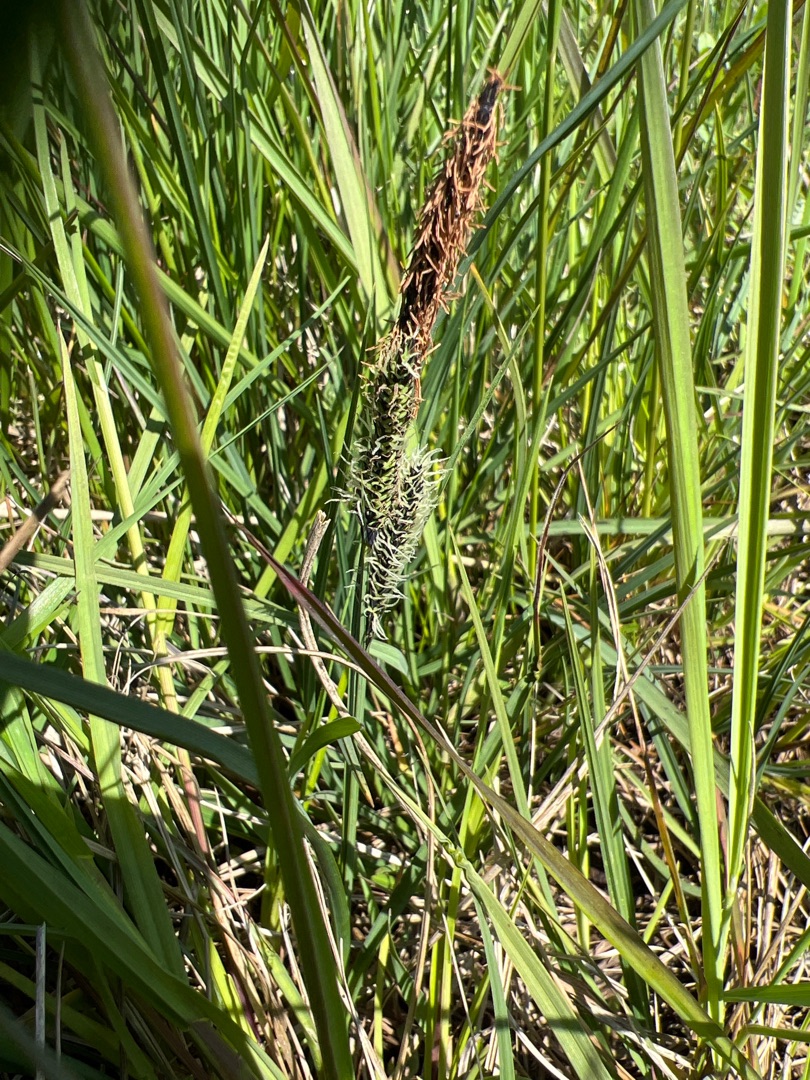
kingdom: Plantae
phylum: Tracheophyta
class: Liliopsida
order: Poales
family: Cyperaceae
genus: Carex
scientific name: Carex nigra
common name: Almindelig star
